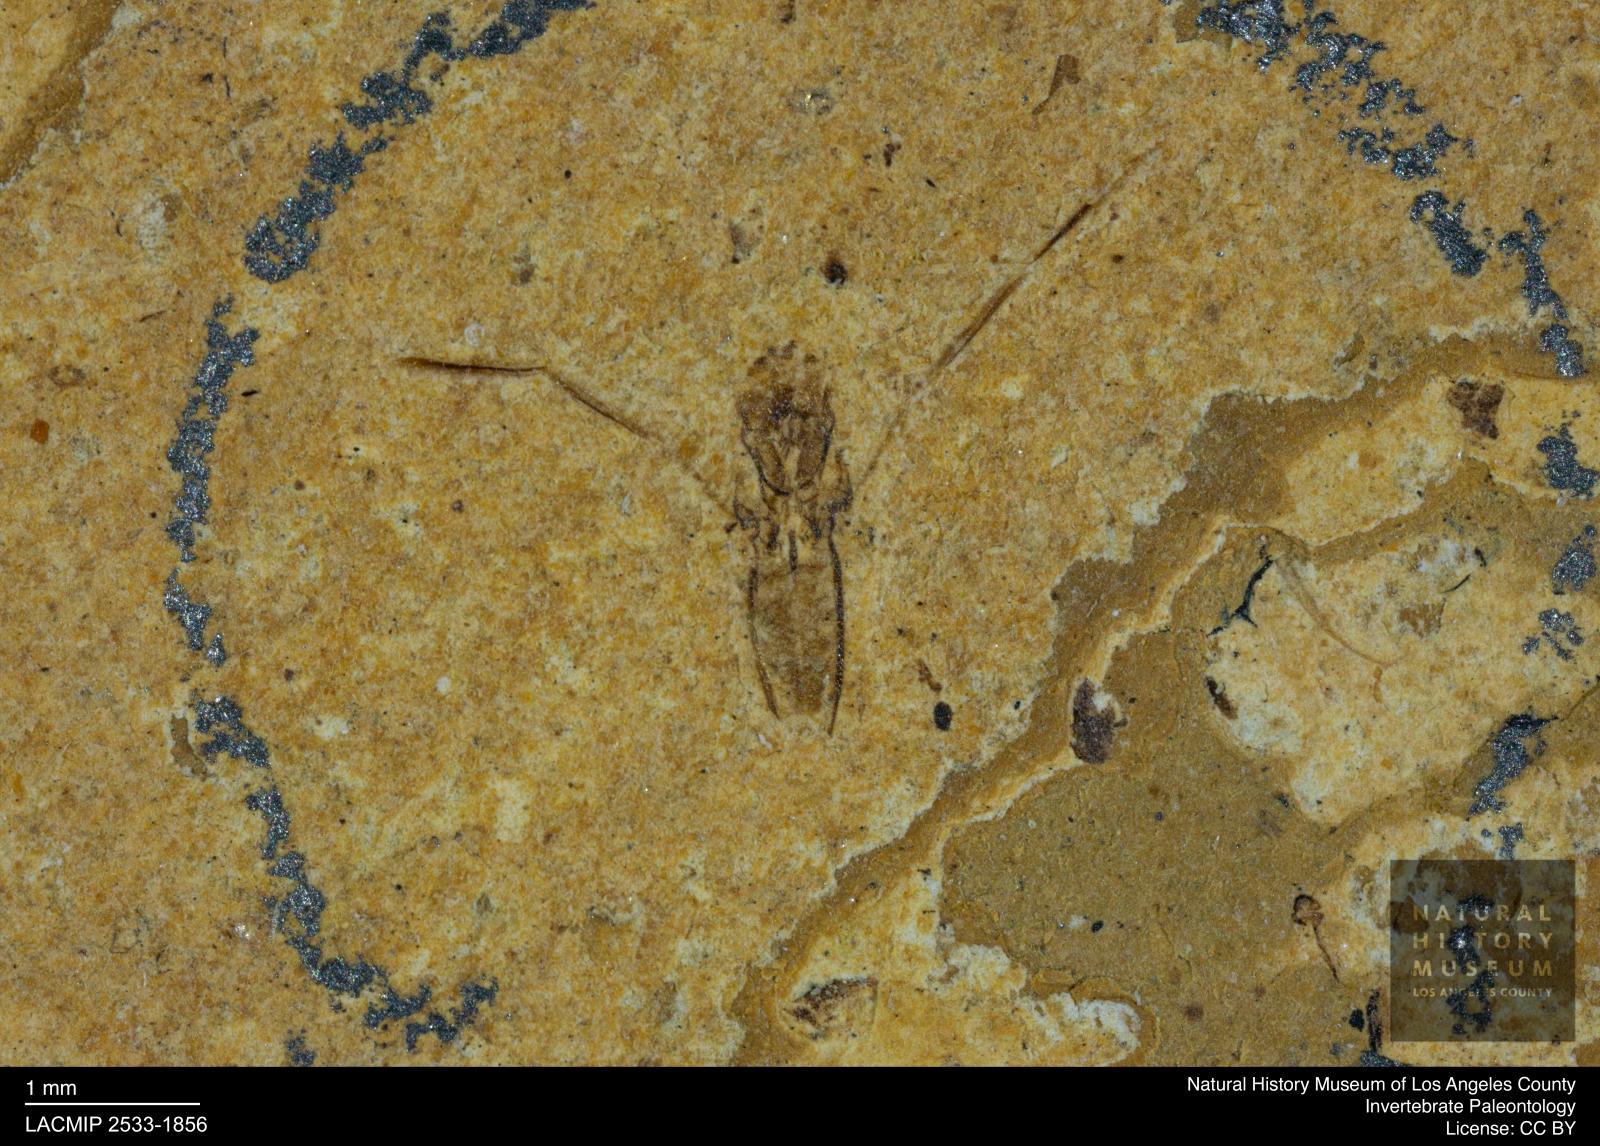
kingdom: Animalia
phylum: Arthropoda
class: Insecta
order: Hemiptera
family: Notonectidae
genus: Notonecta
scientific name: Notonecta
